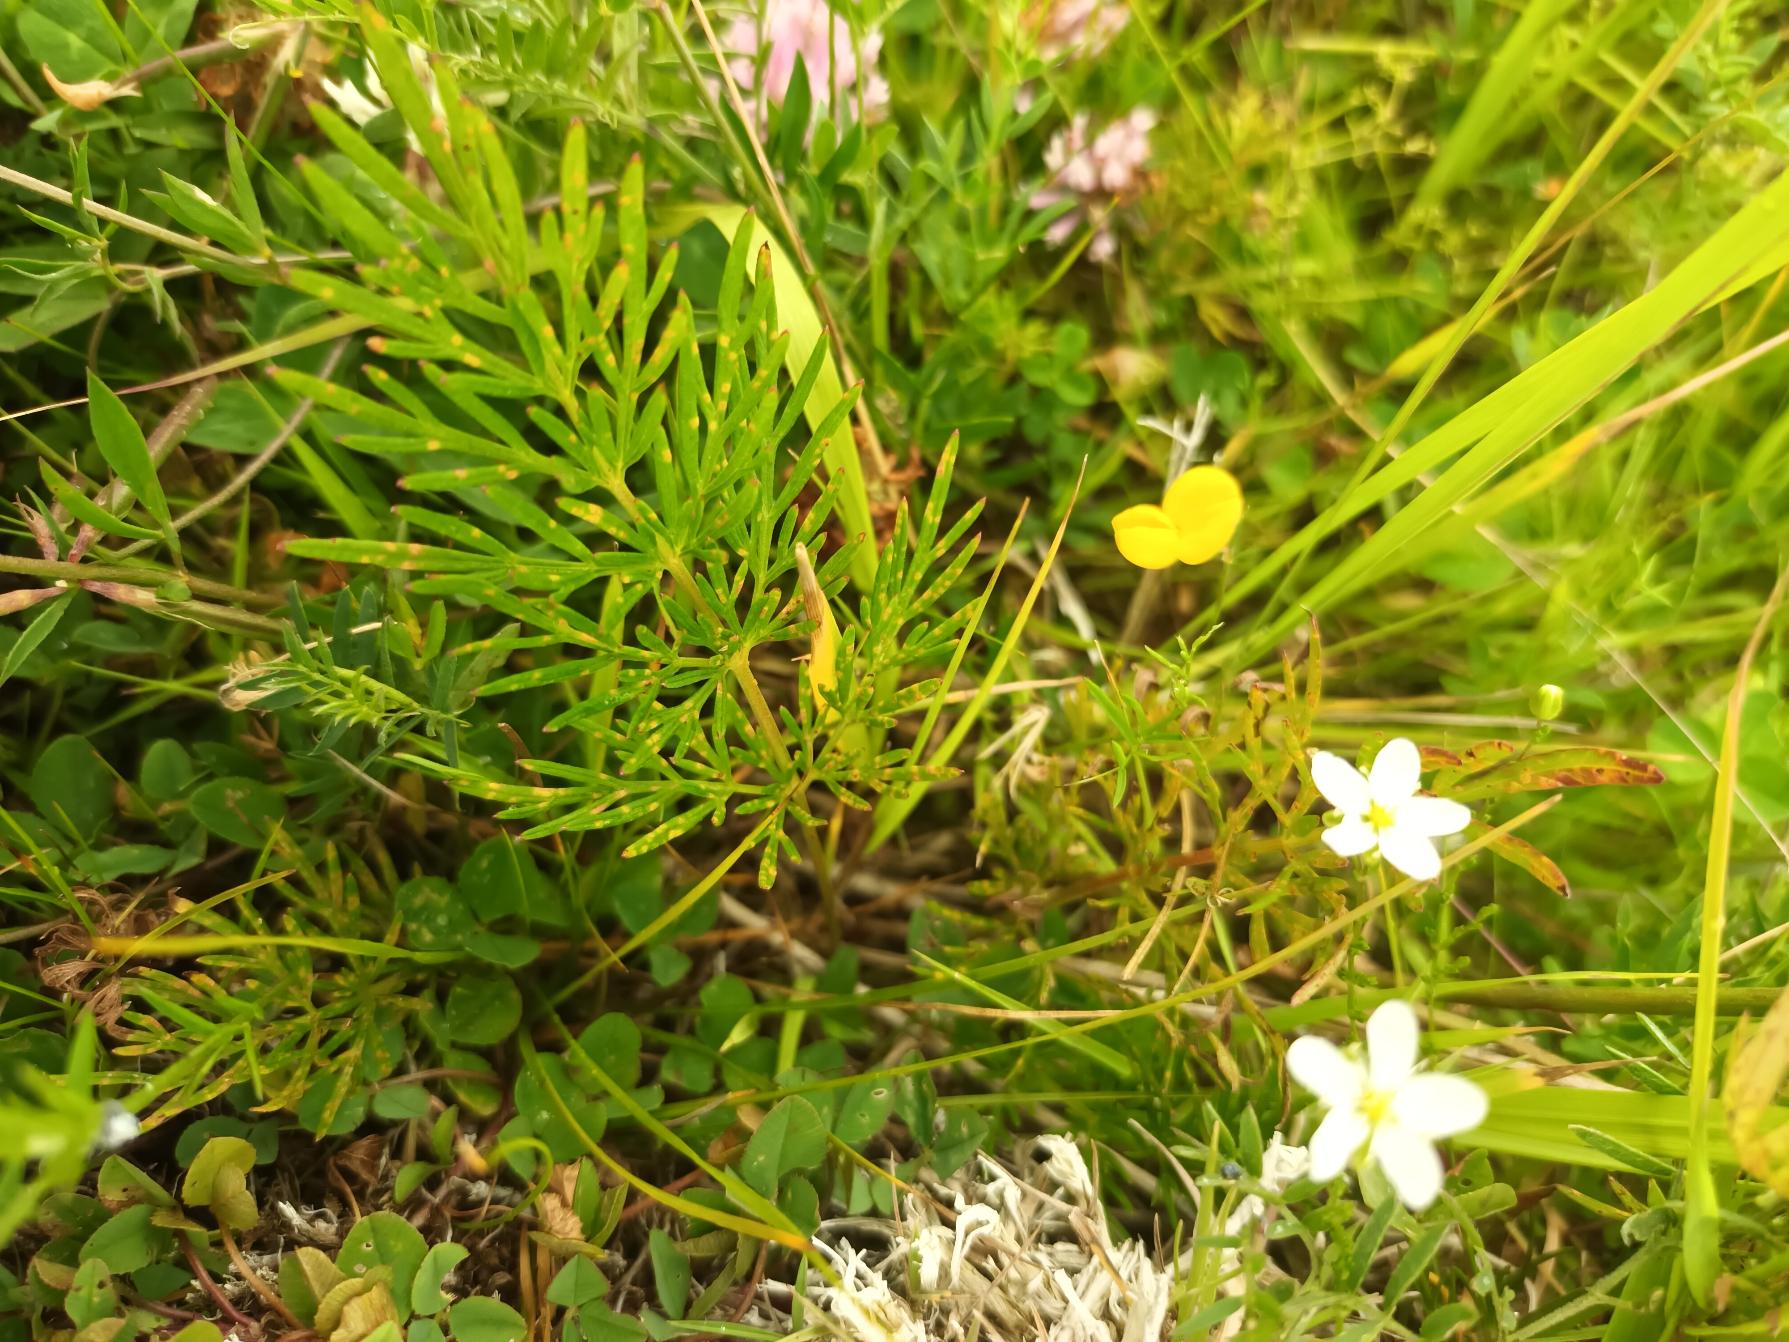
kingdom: Plantae
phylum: Tracheophyta
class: Magnoliopsida
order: Apiales
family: Apiaceae
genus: Kadenia
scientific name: Kadenia dubia
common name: Brændeskærm
